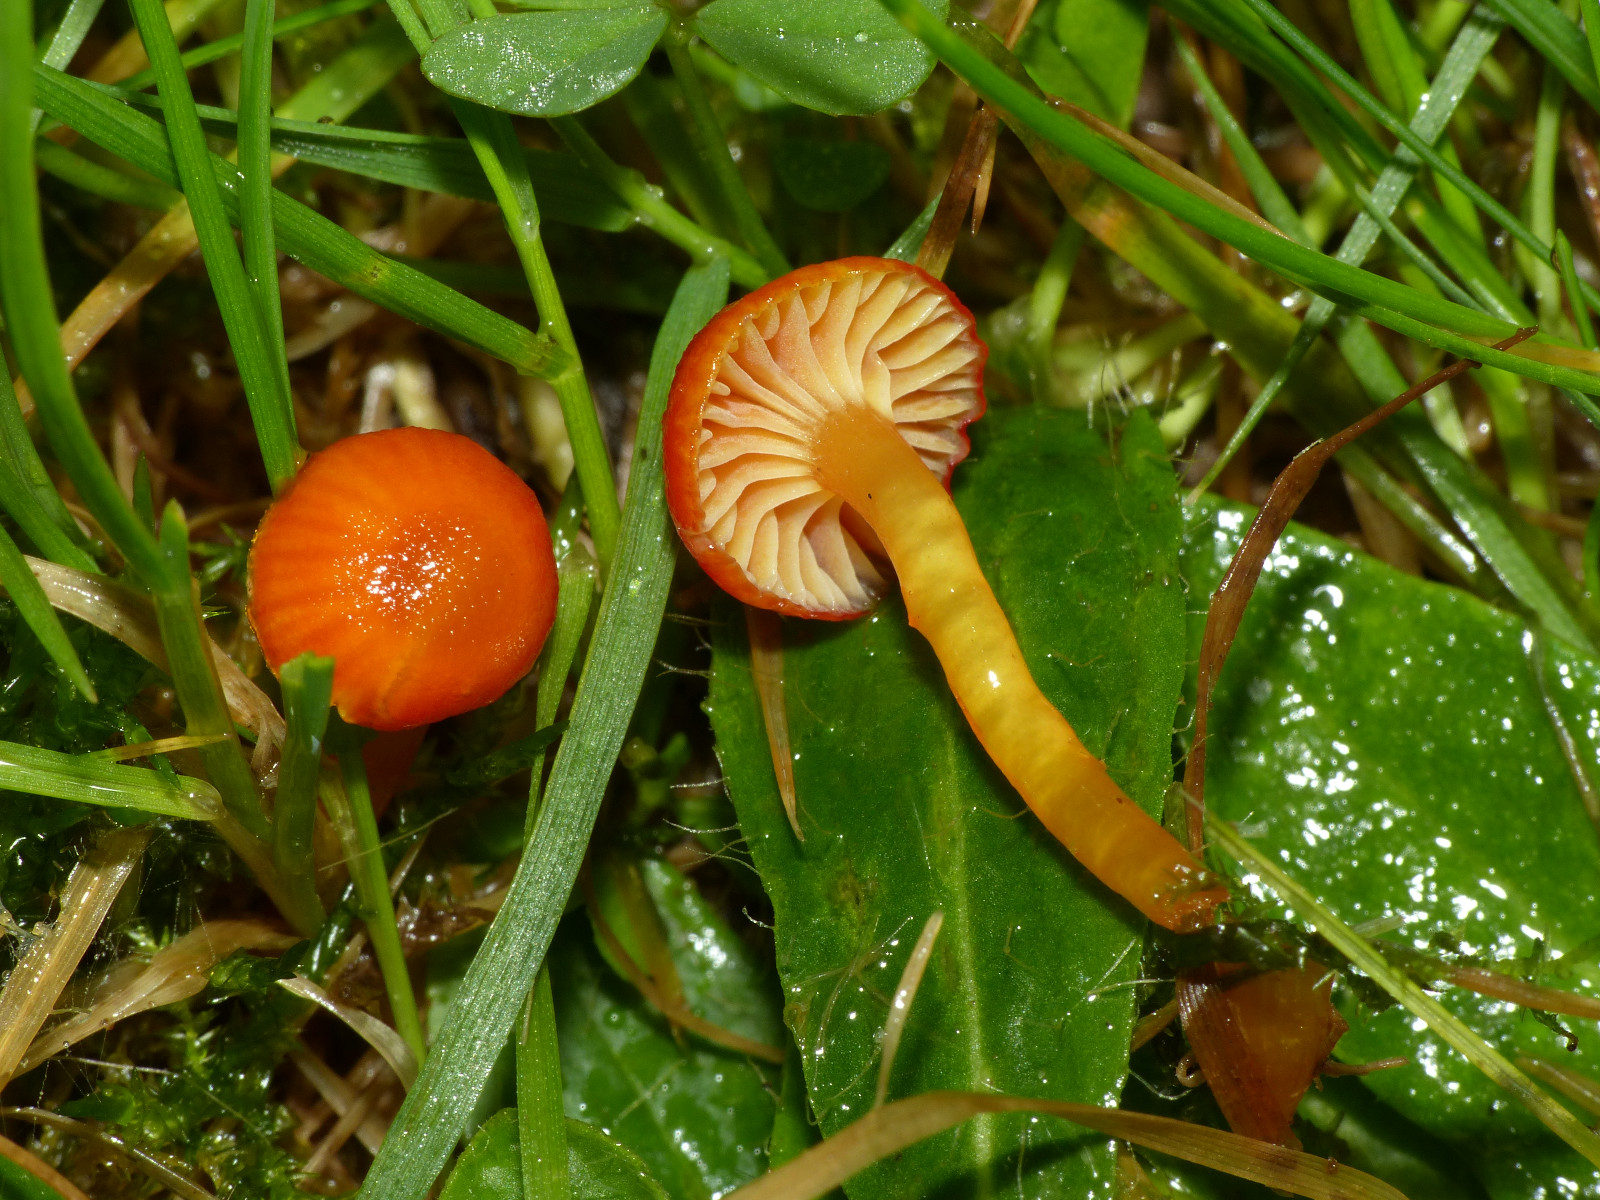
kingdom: Fungi
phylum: Basidiomycota
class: Agaricomycetes
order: Agaricales
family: Hygrophoraceae
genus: Hygrocybe
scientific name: Hygrocybe insipida
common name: liden vokshat
